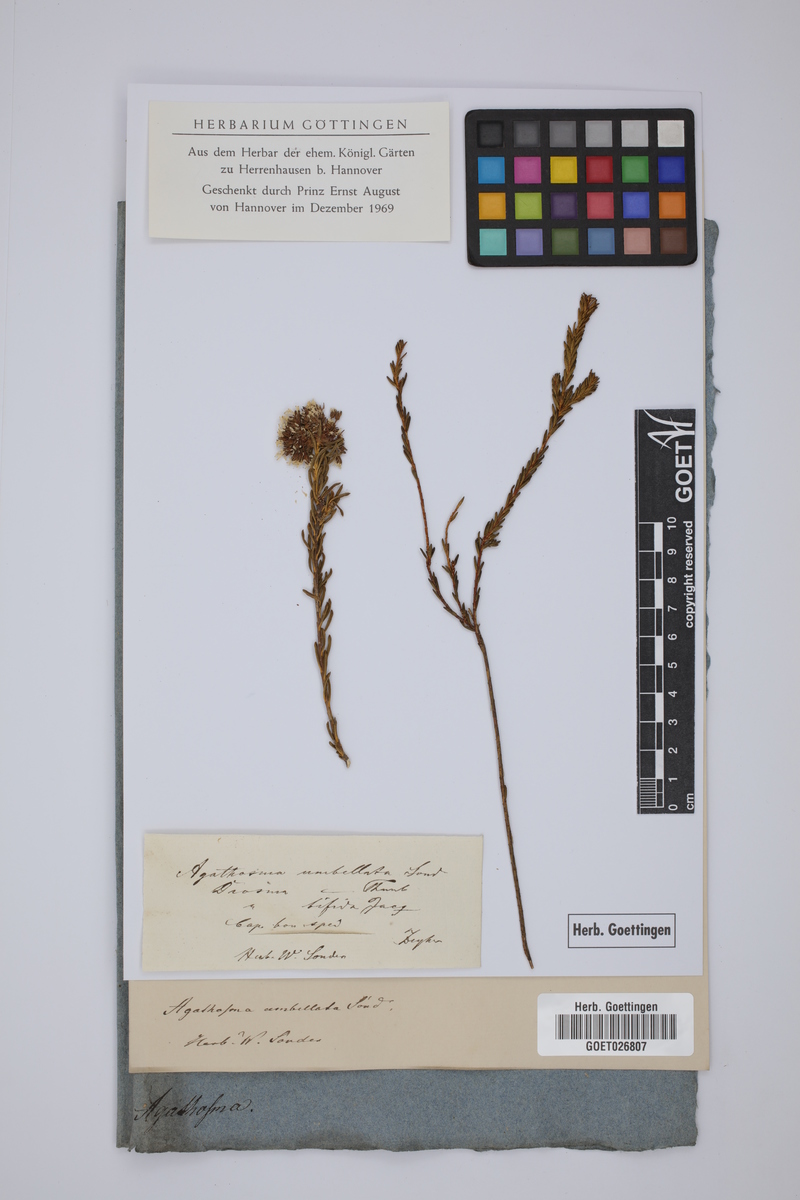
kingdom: Plantae
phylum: Tracheophyta
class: Magnoliopsida
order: Sapindales
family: Rutaceae
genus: Agathosma
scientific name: Agathosma bifida
